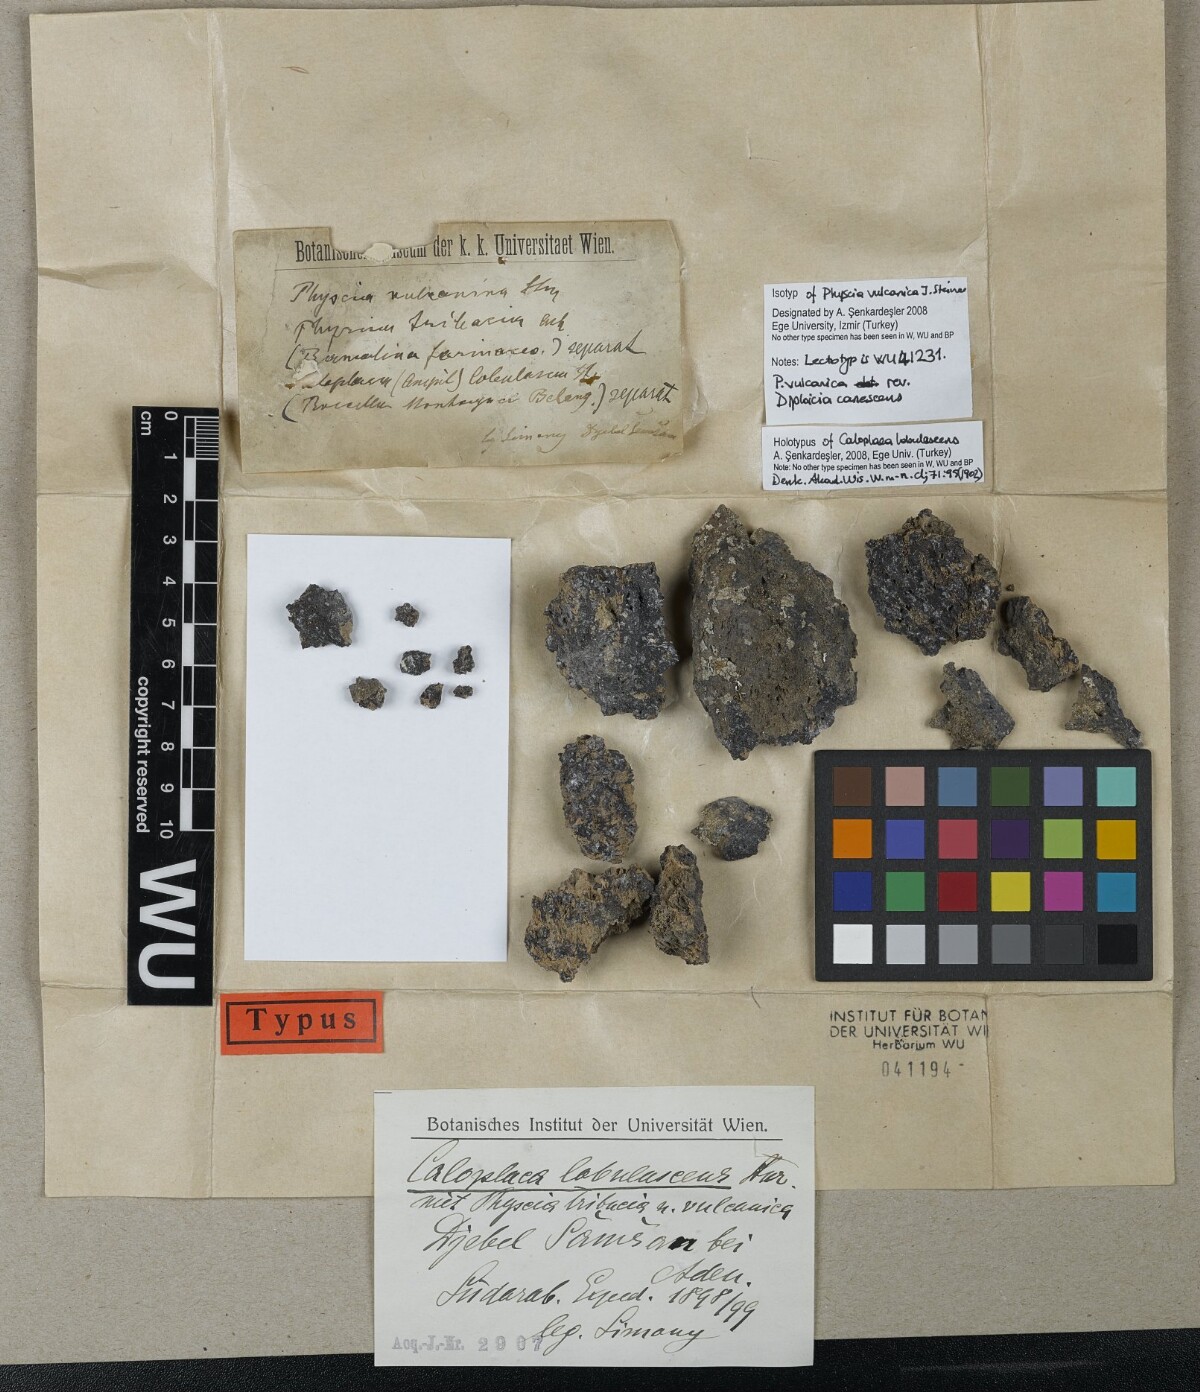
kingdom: Fungi
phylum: Ascomycota
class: Lecanoromycetes
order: Teloschistales
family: Teloschistaceae
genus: Caloplaca
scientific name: Caloplaca
